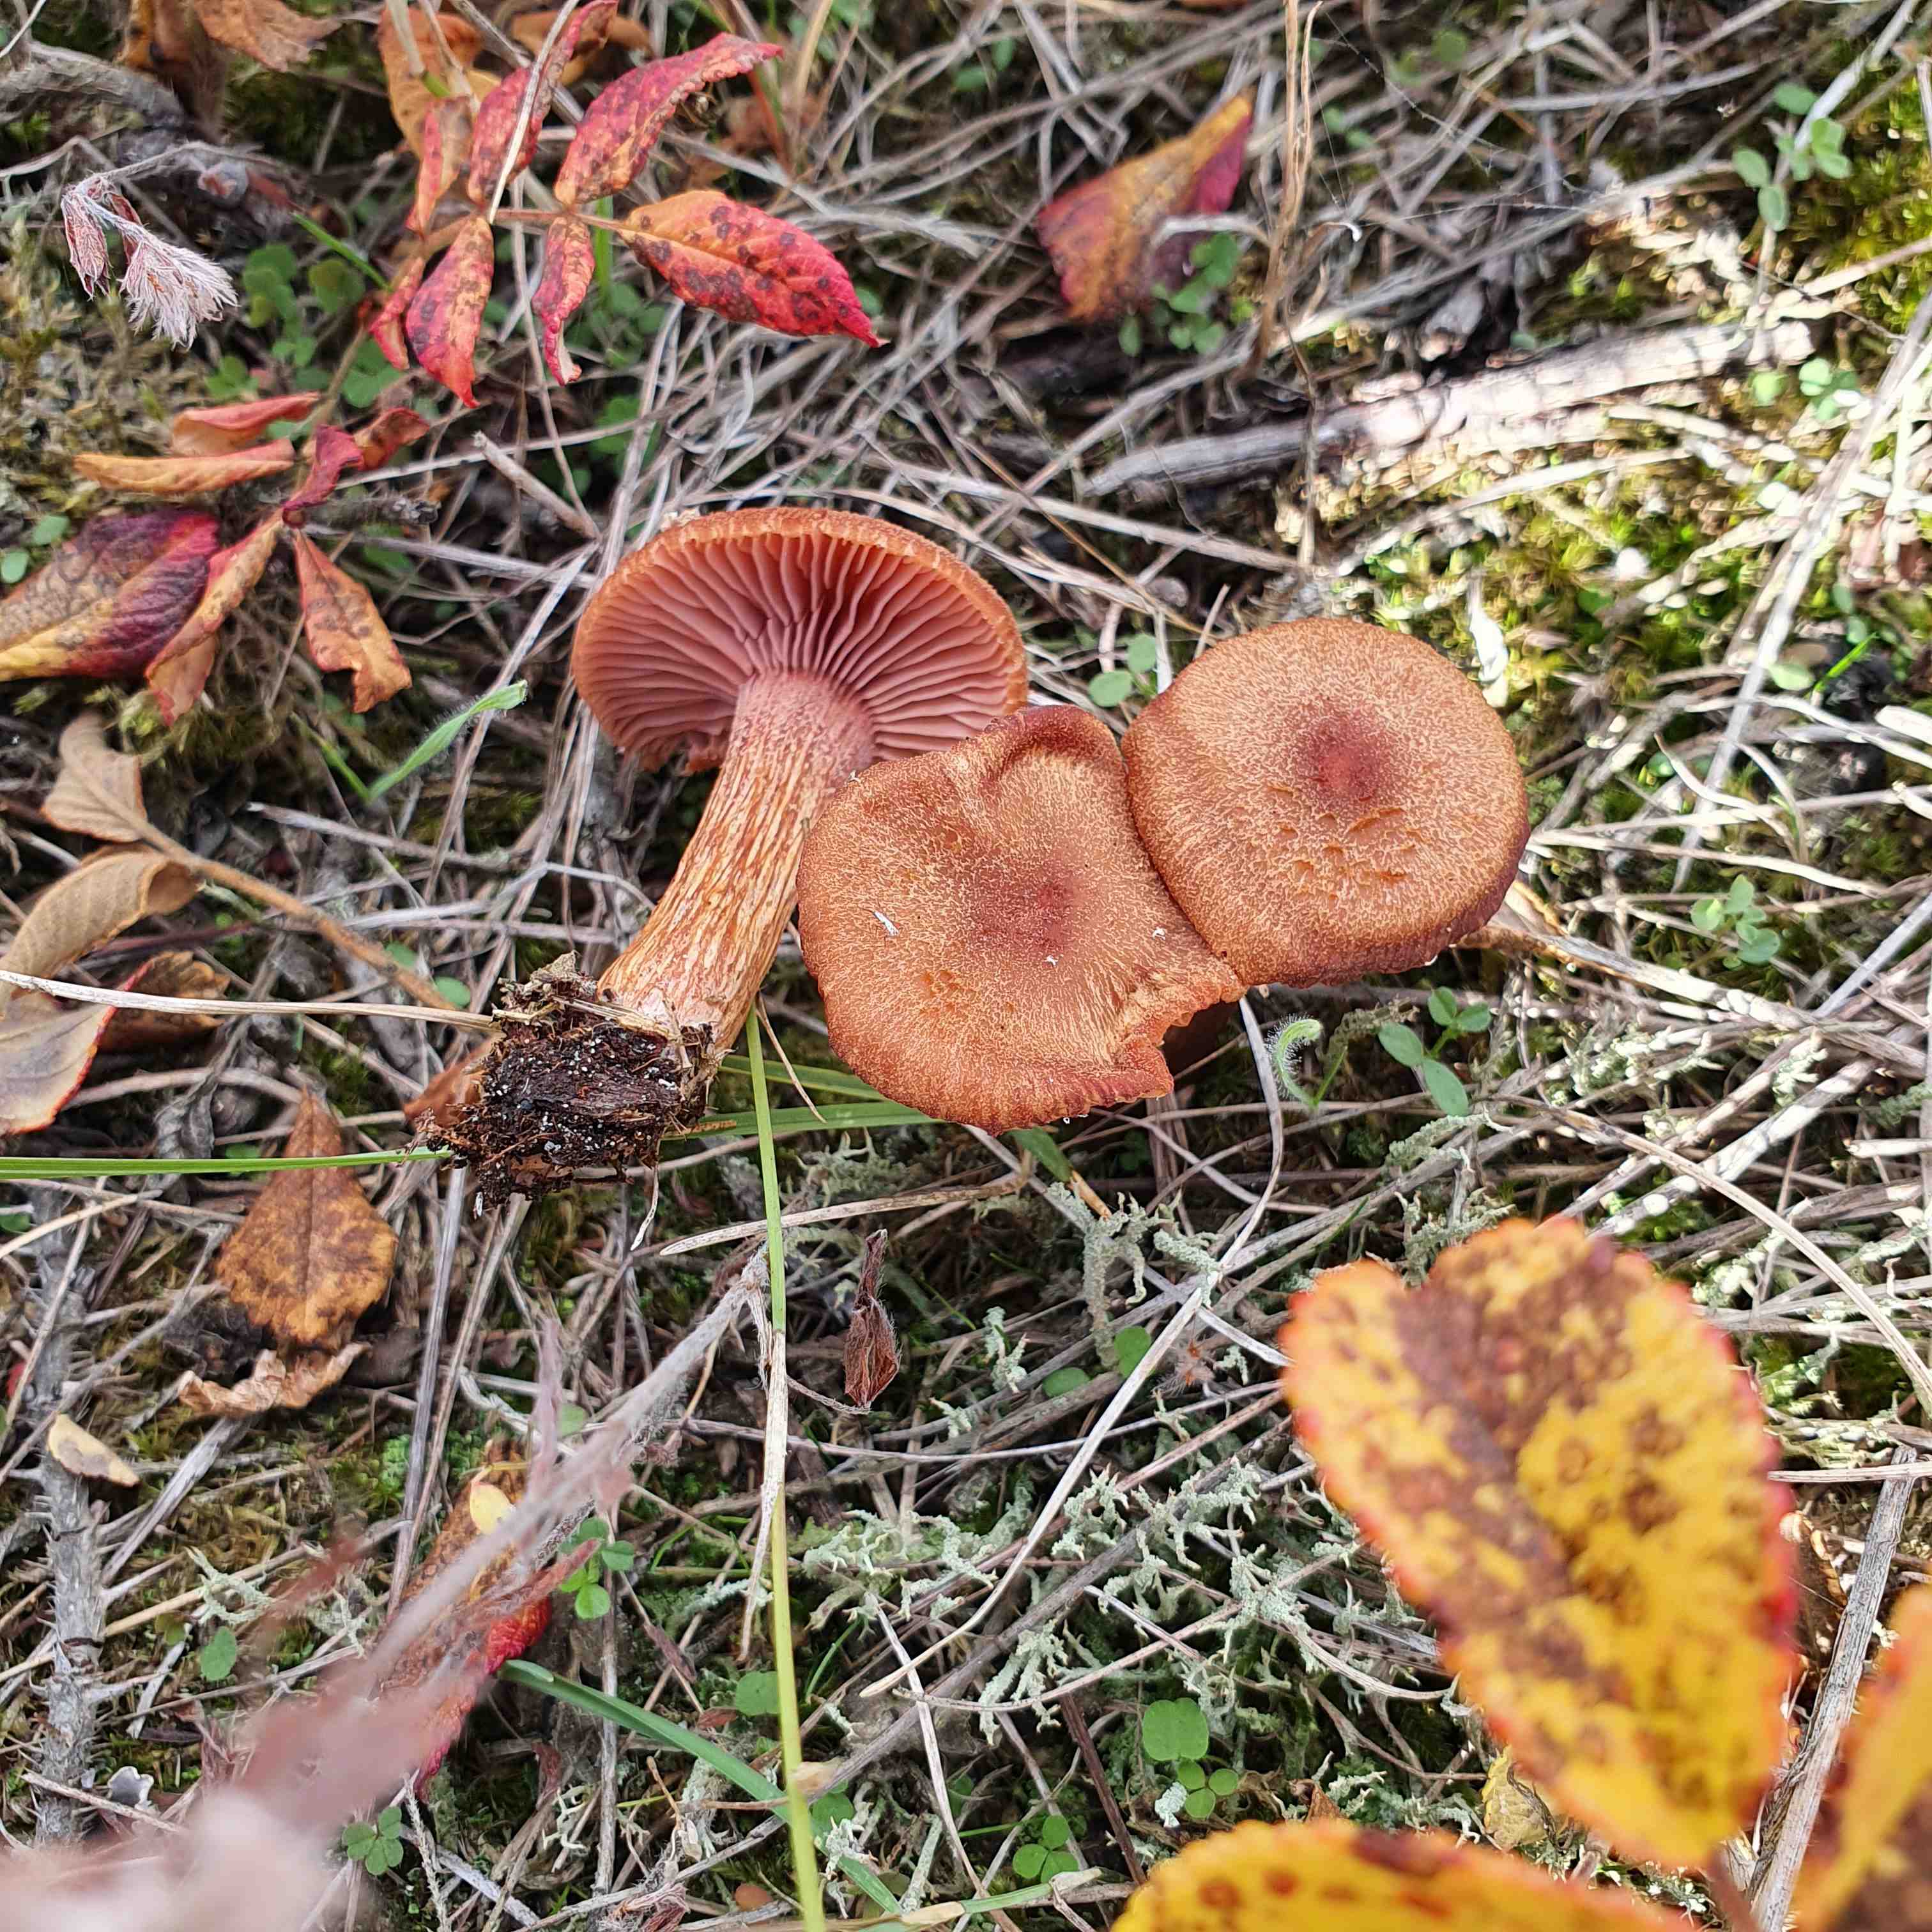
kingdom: Fungi
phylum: Basidiomycota
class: Agaricomycetes
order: Agaricales
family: Hydnangiaceae
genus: Laccaria
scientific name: Laccaria proxima
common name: stor ametysthat
